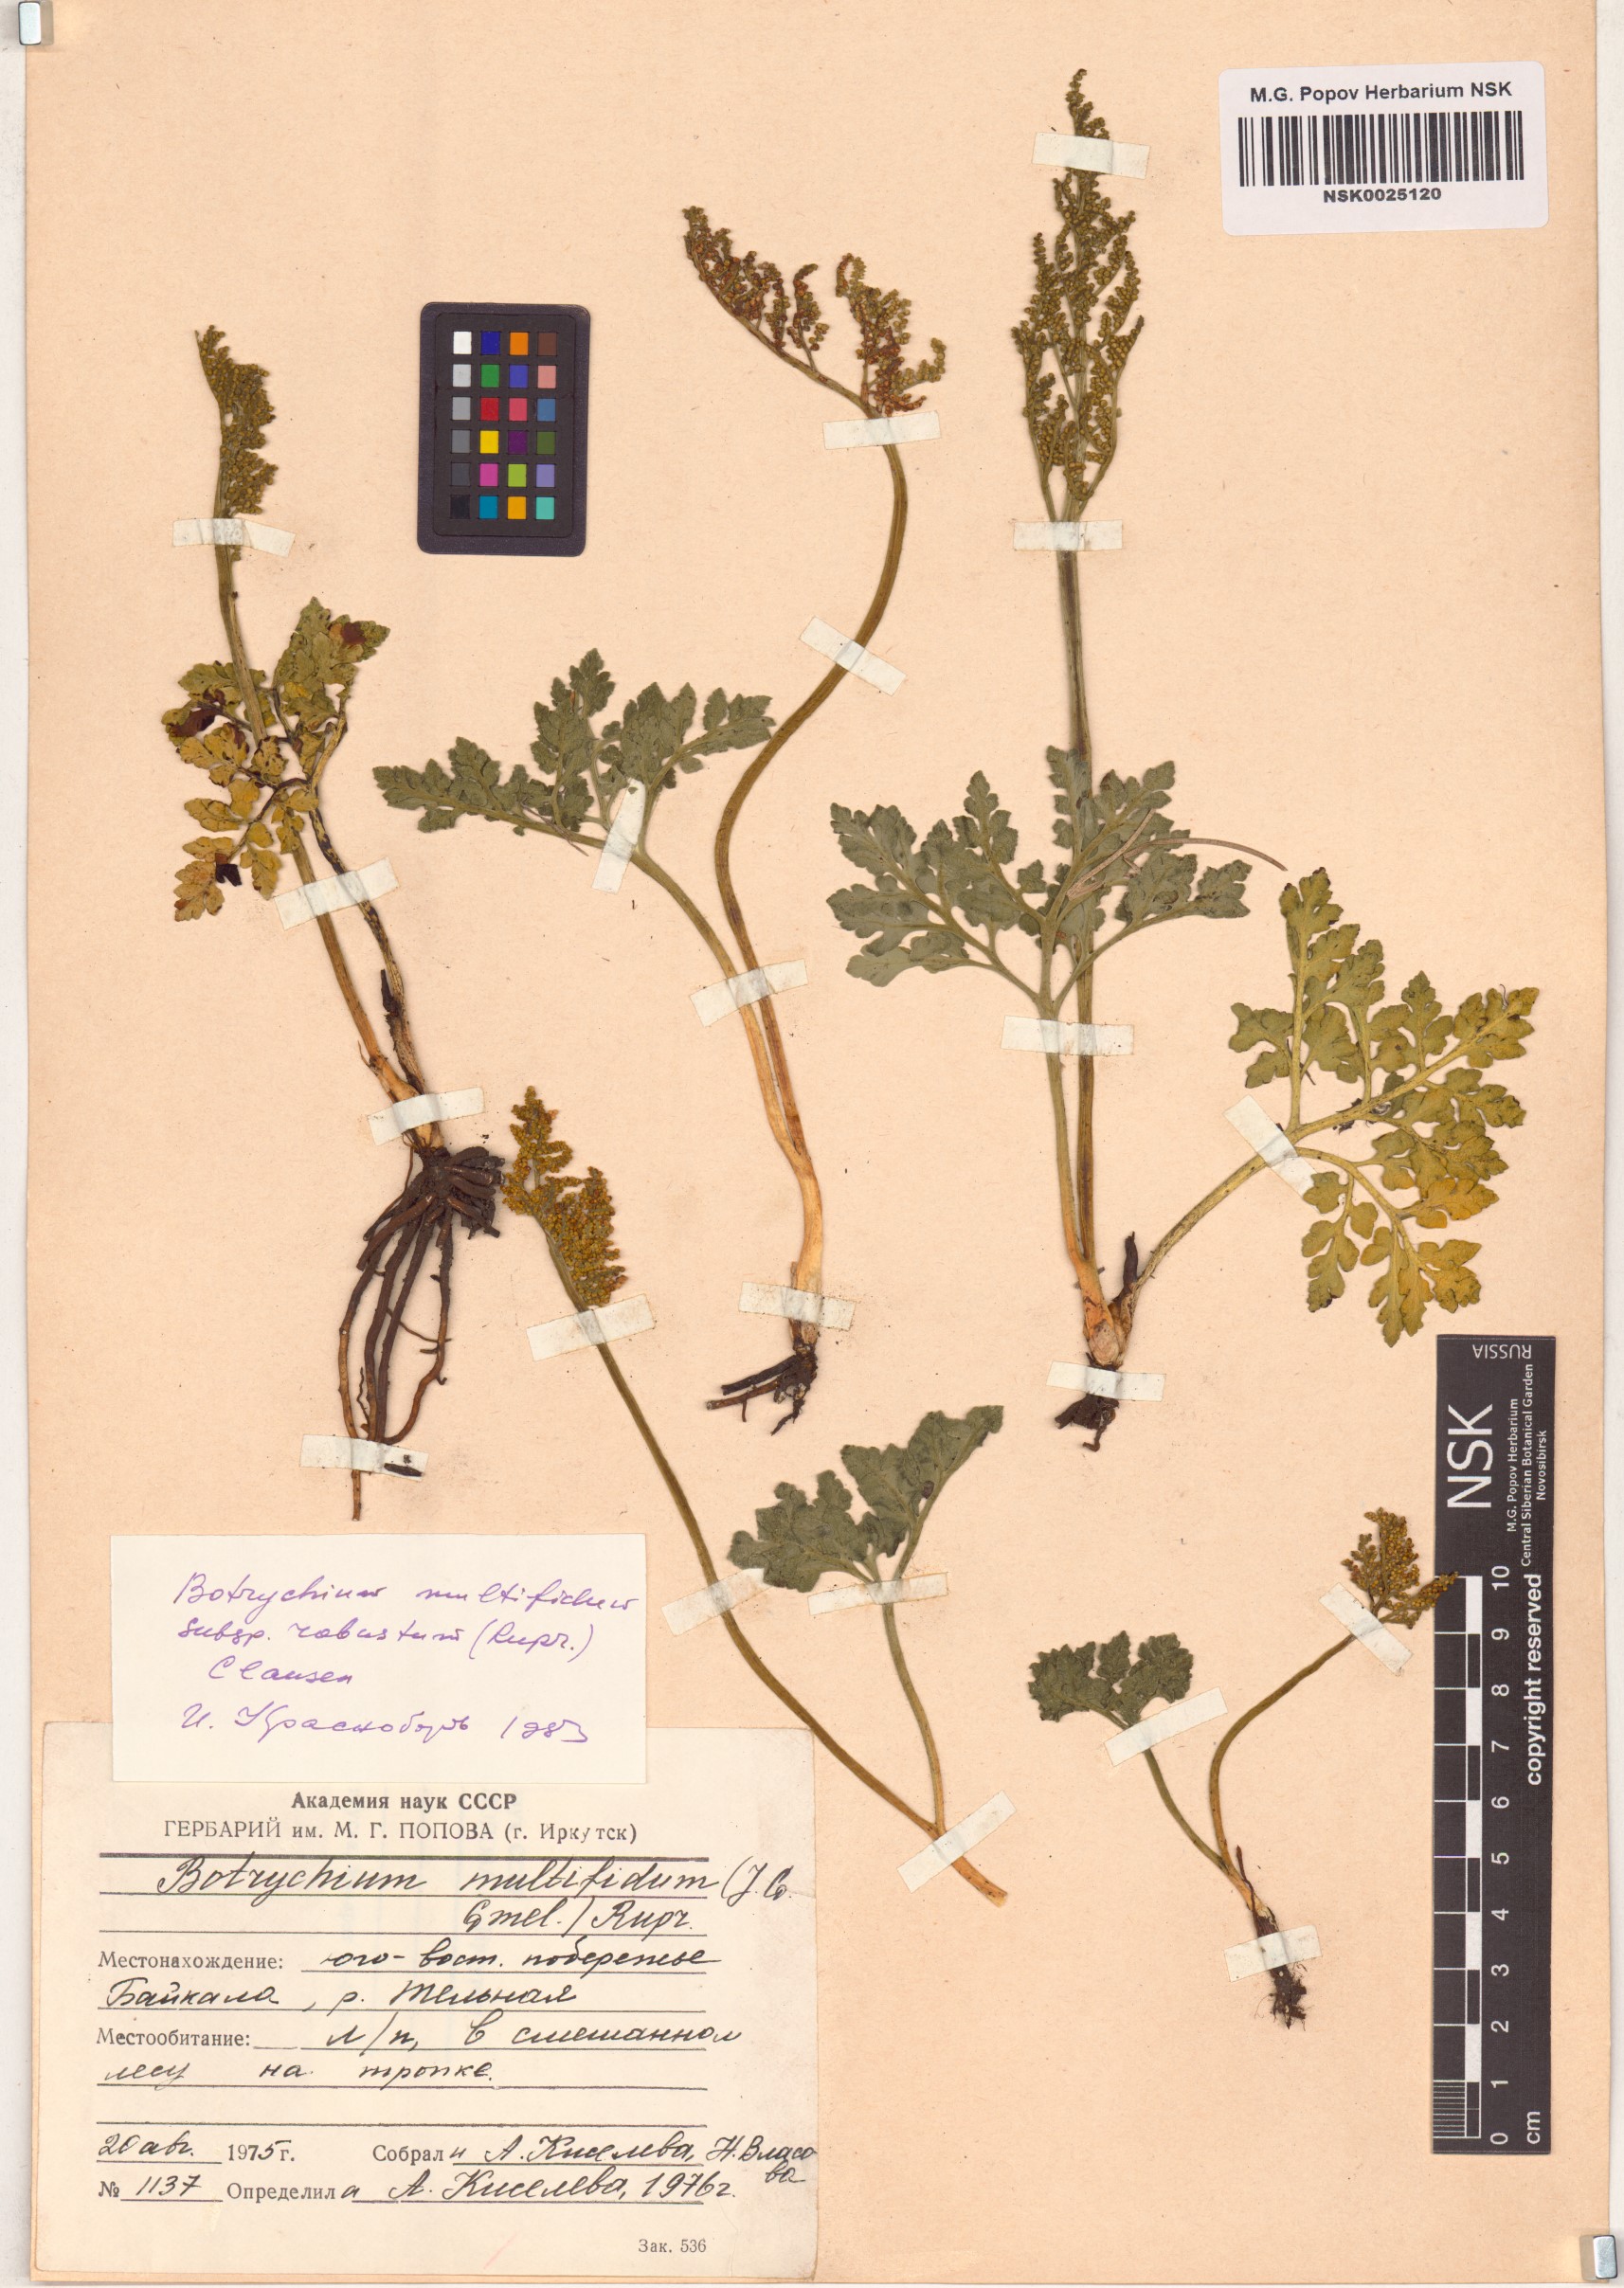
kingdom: Plantae
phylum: Tracheophyta
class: Polypodiopsida
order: Ophioglossales
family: Ophioglossaceae
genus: Sceptridium
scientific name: Sceptridium multifidum
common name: Leathery grape fern
